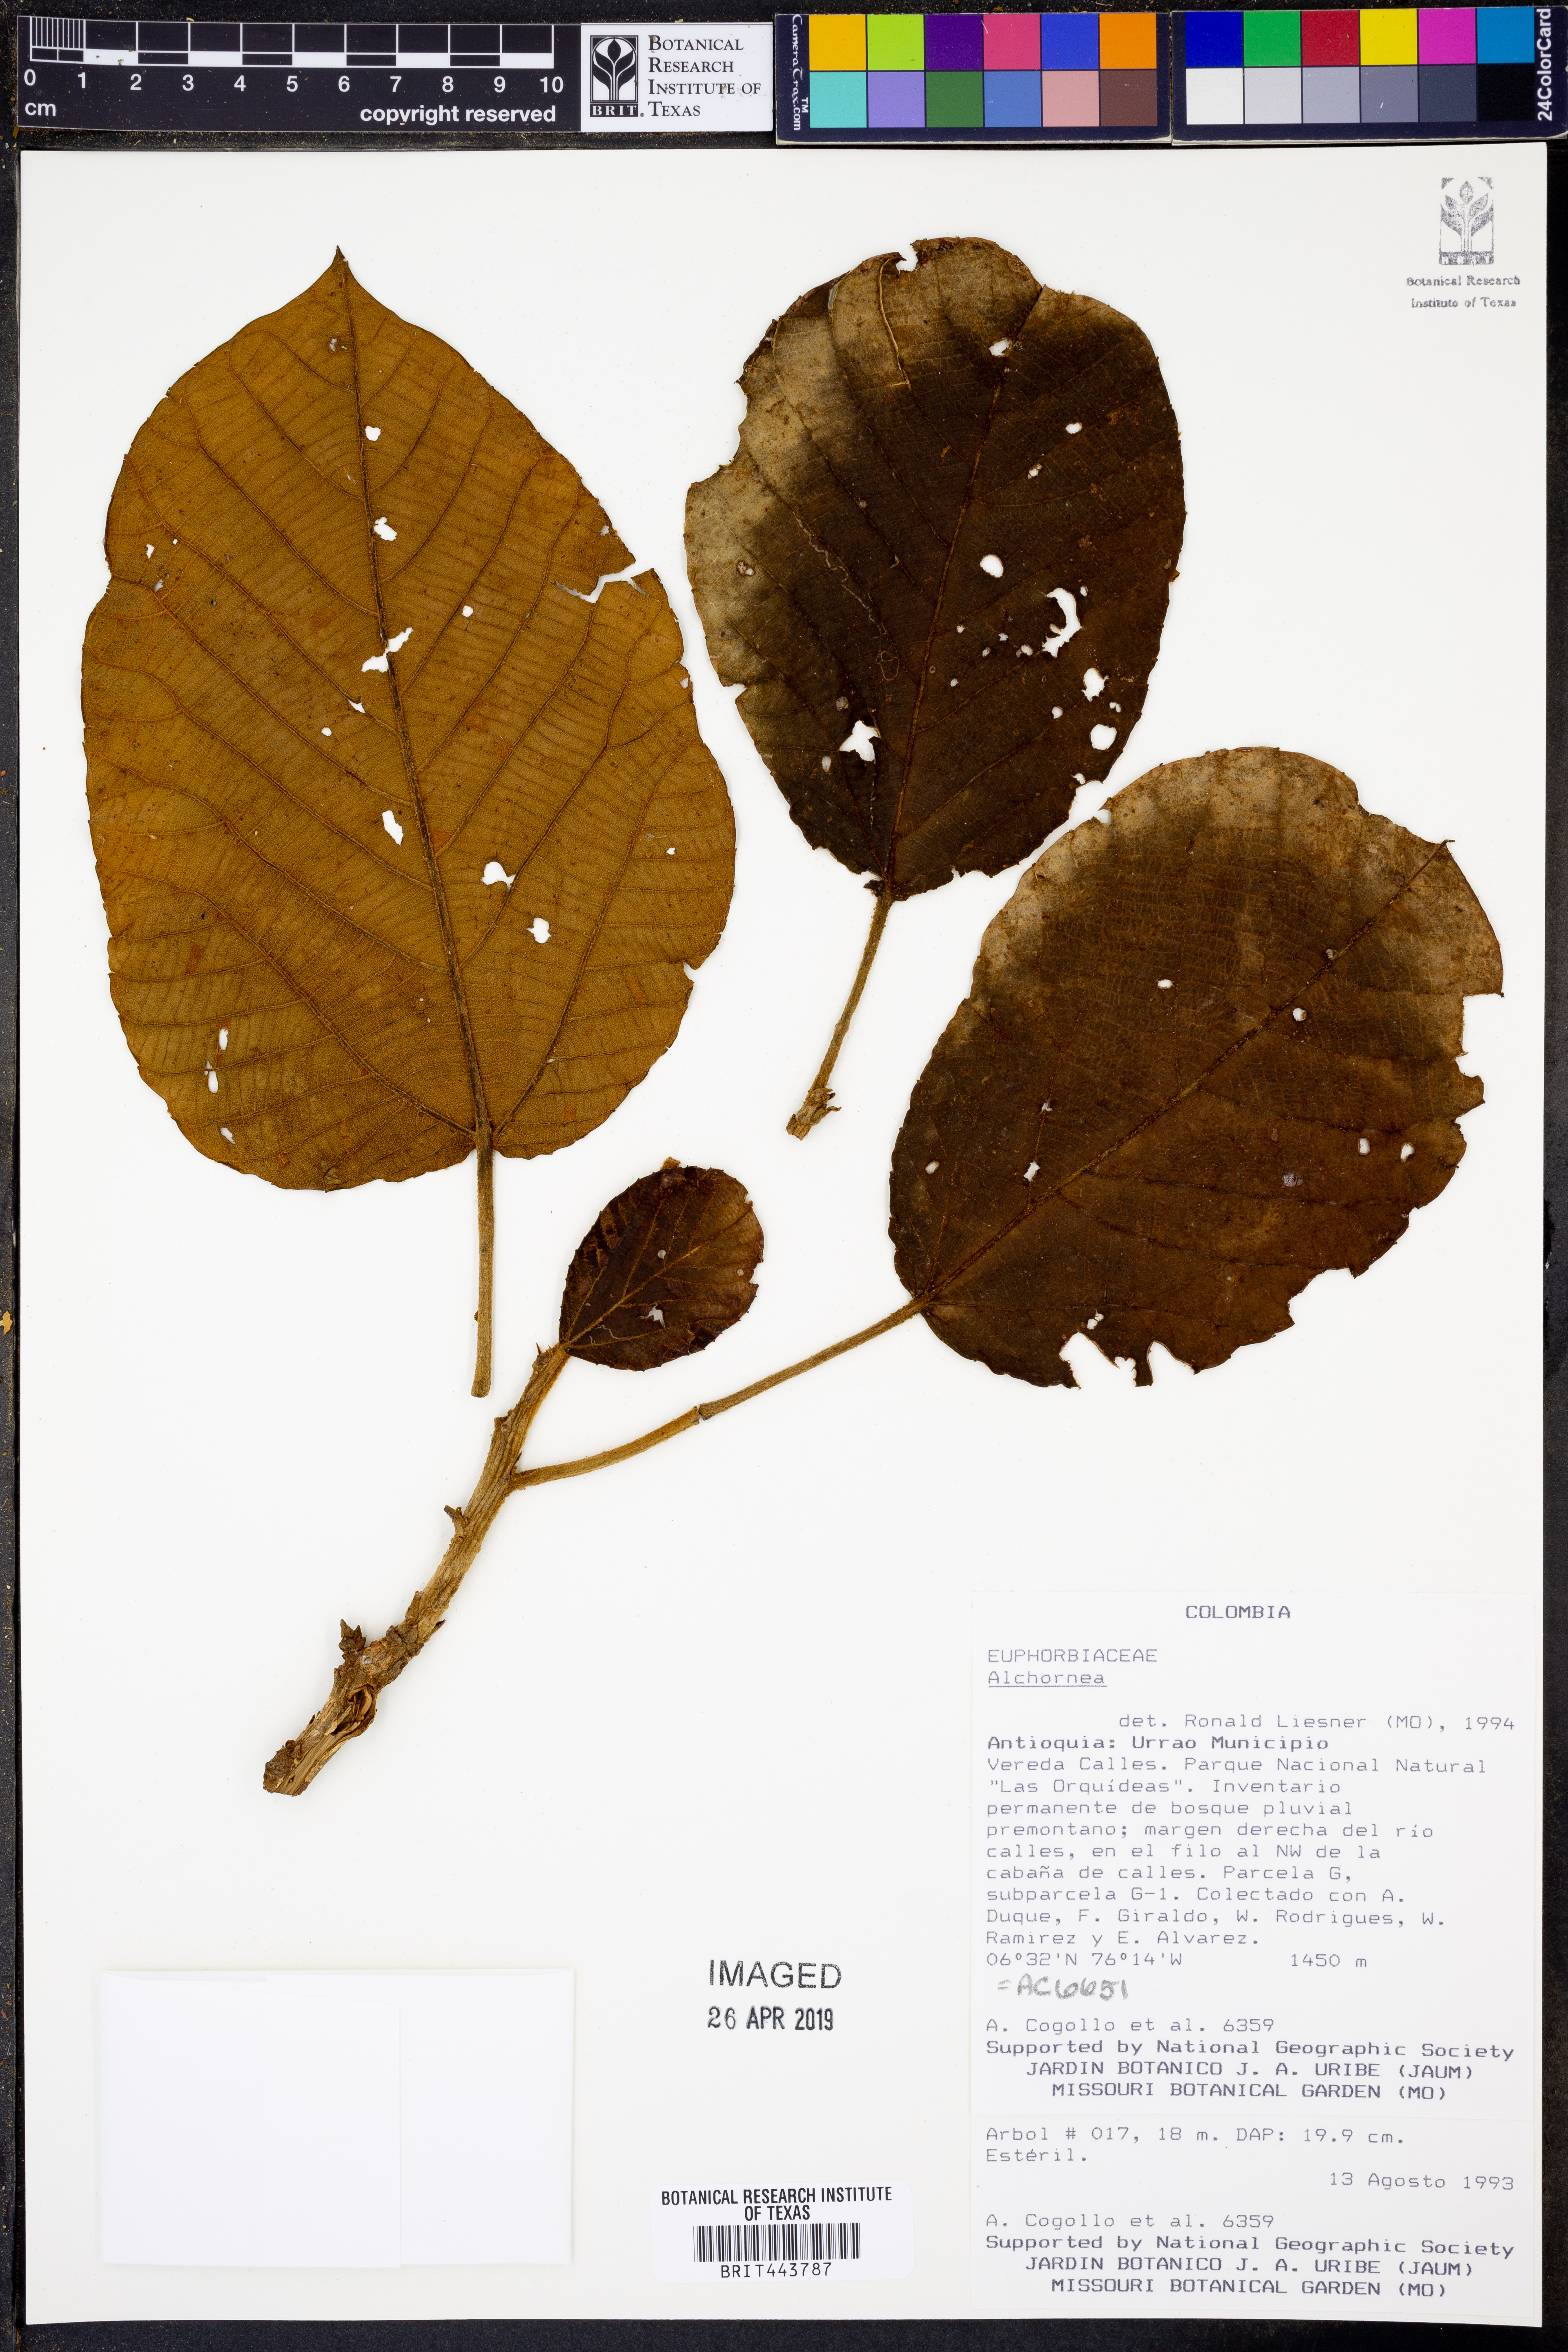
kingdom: Plantae
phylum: Tracheophyta
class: Magnoliopsida
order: Malpighiales
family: Euphorbiaceae
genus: Alchornea
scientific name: Alchornea
